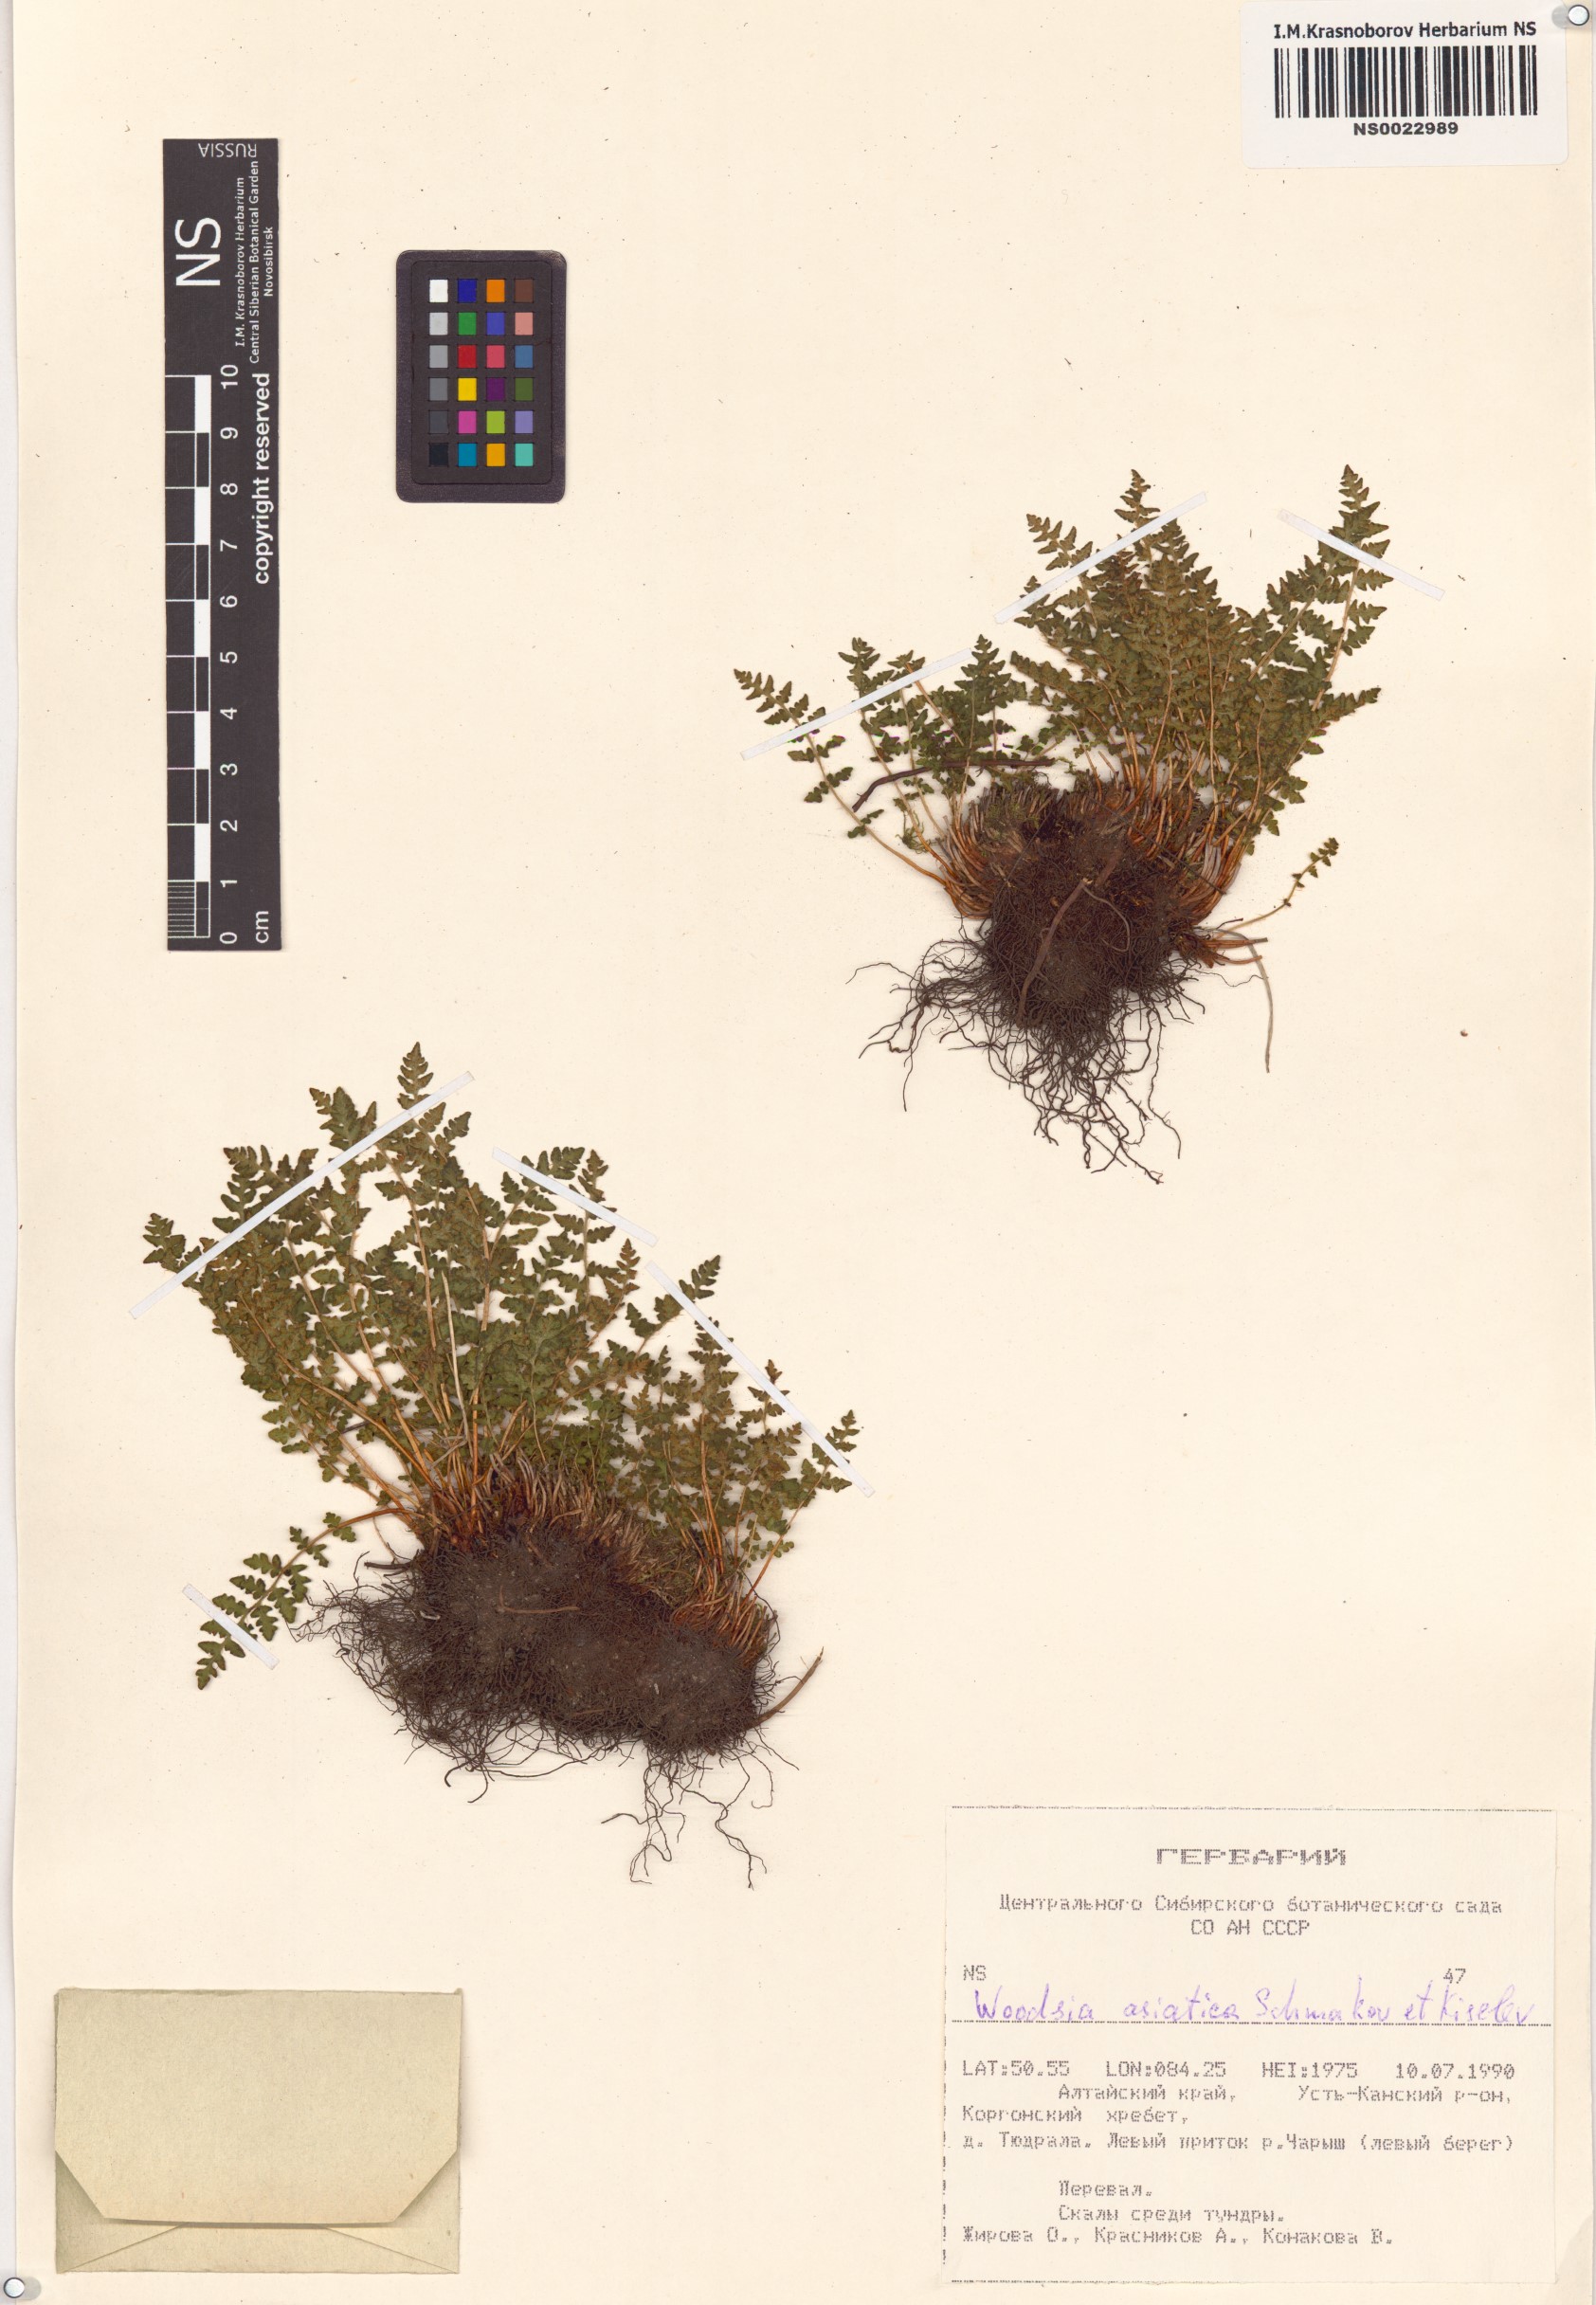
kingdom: Plantae
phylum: Tracheophyta
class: Polypodiopsida
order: Polypodiales
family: Woodsiaceae
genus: Woodsia
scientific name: Woodsia asiatica
